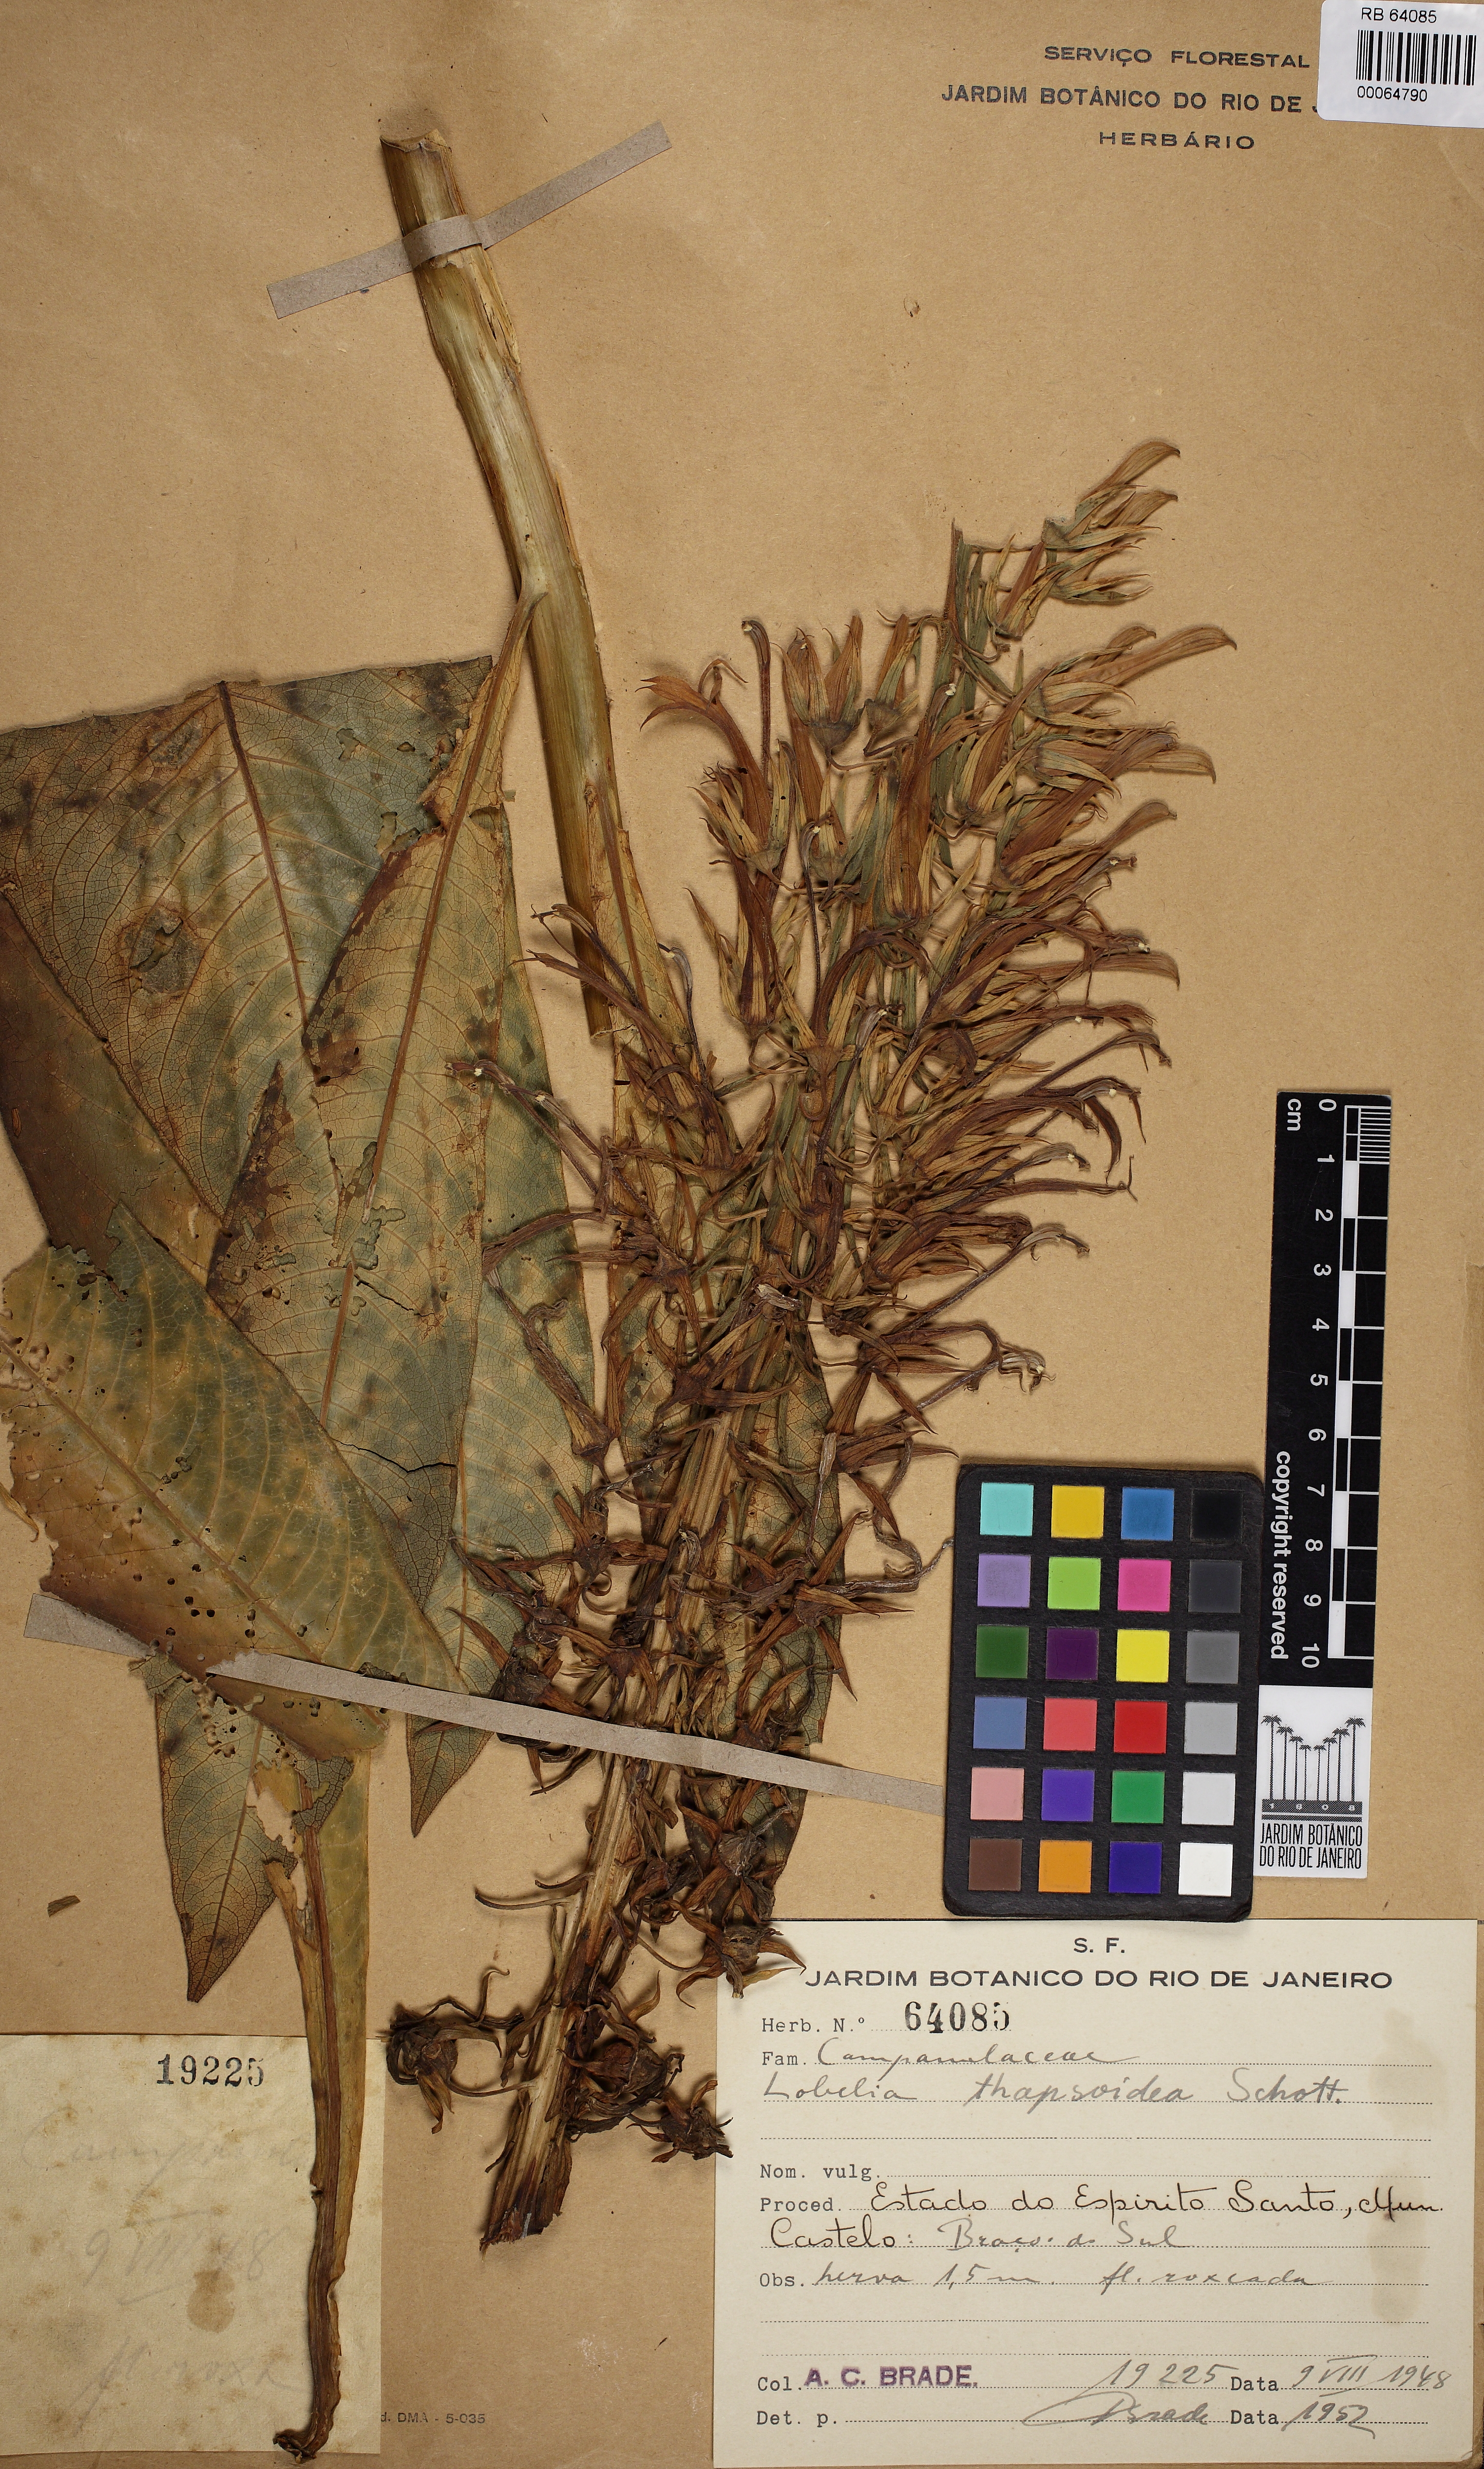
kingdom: Plantae
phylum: Tracheophyta
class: Magnoliopsida
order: Asterales
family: Campanulaceae
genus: Lobelia
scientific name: Lobelia thapsoidea
